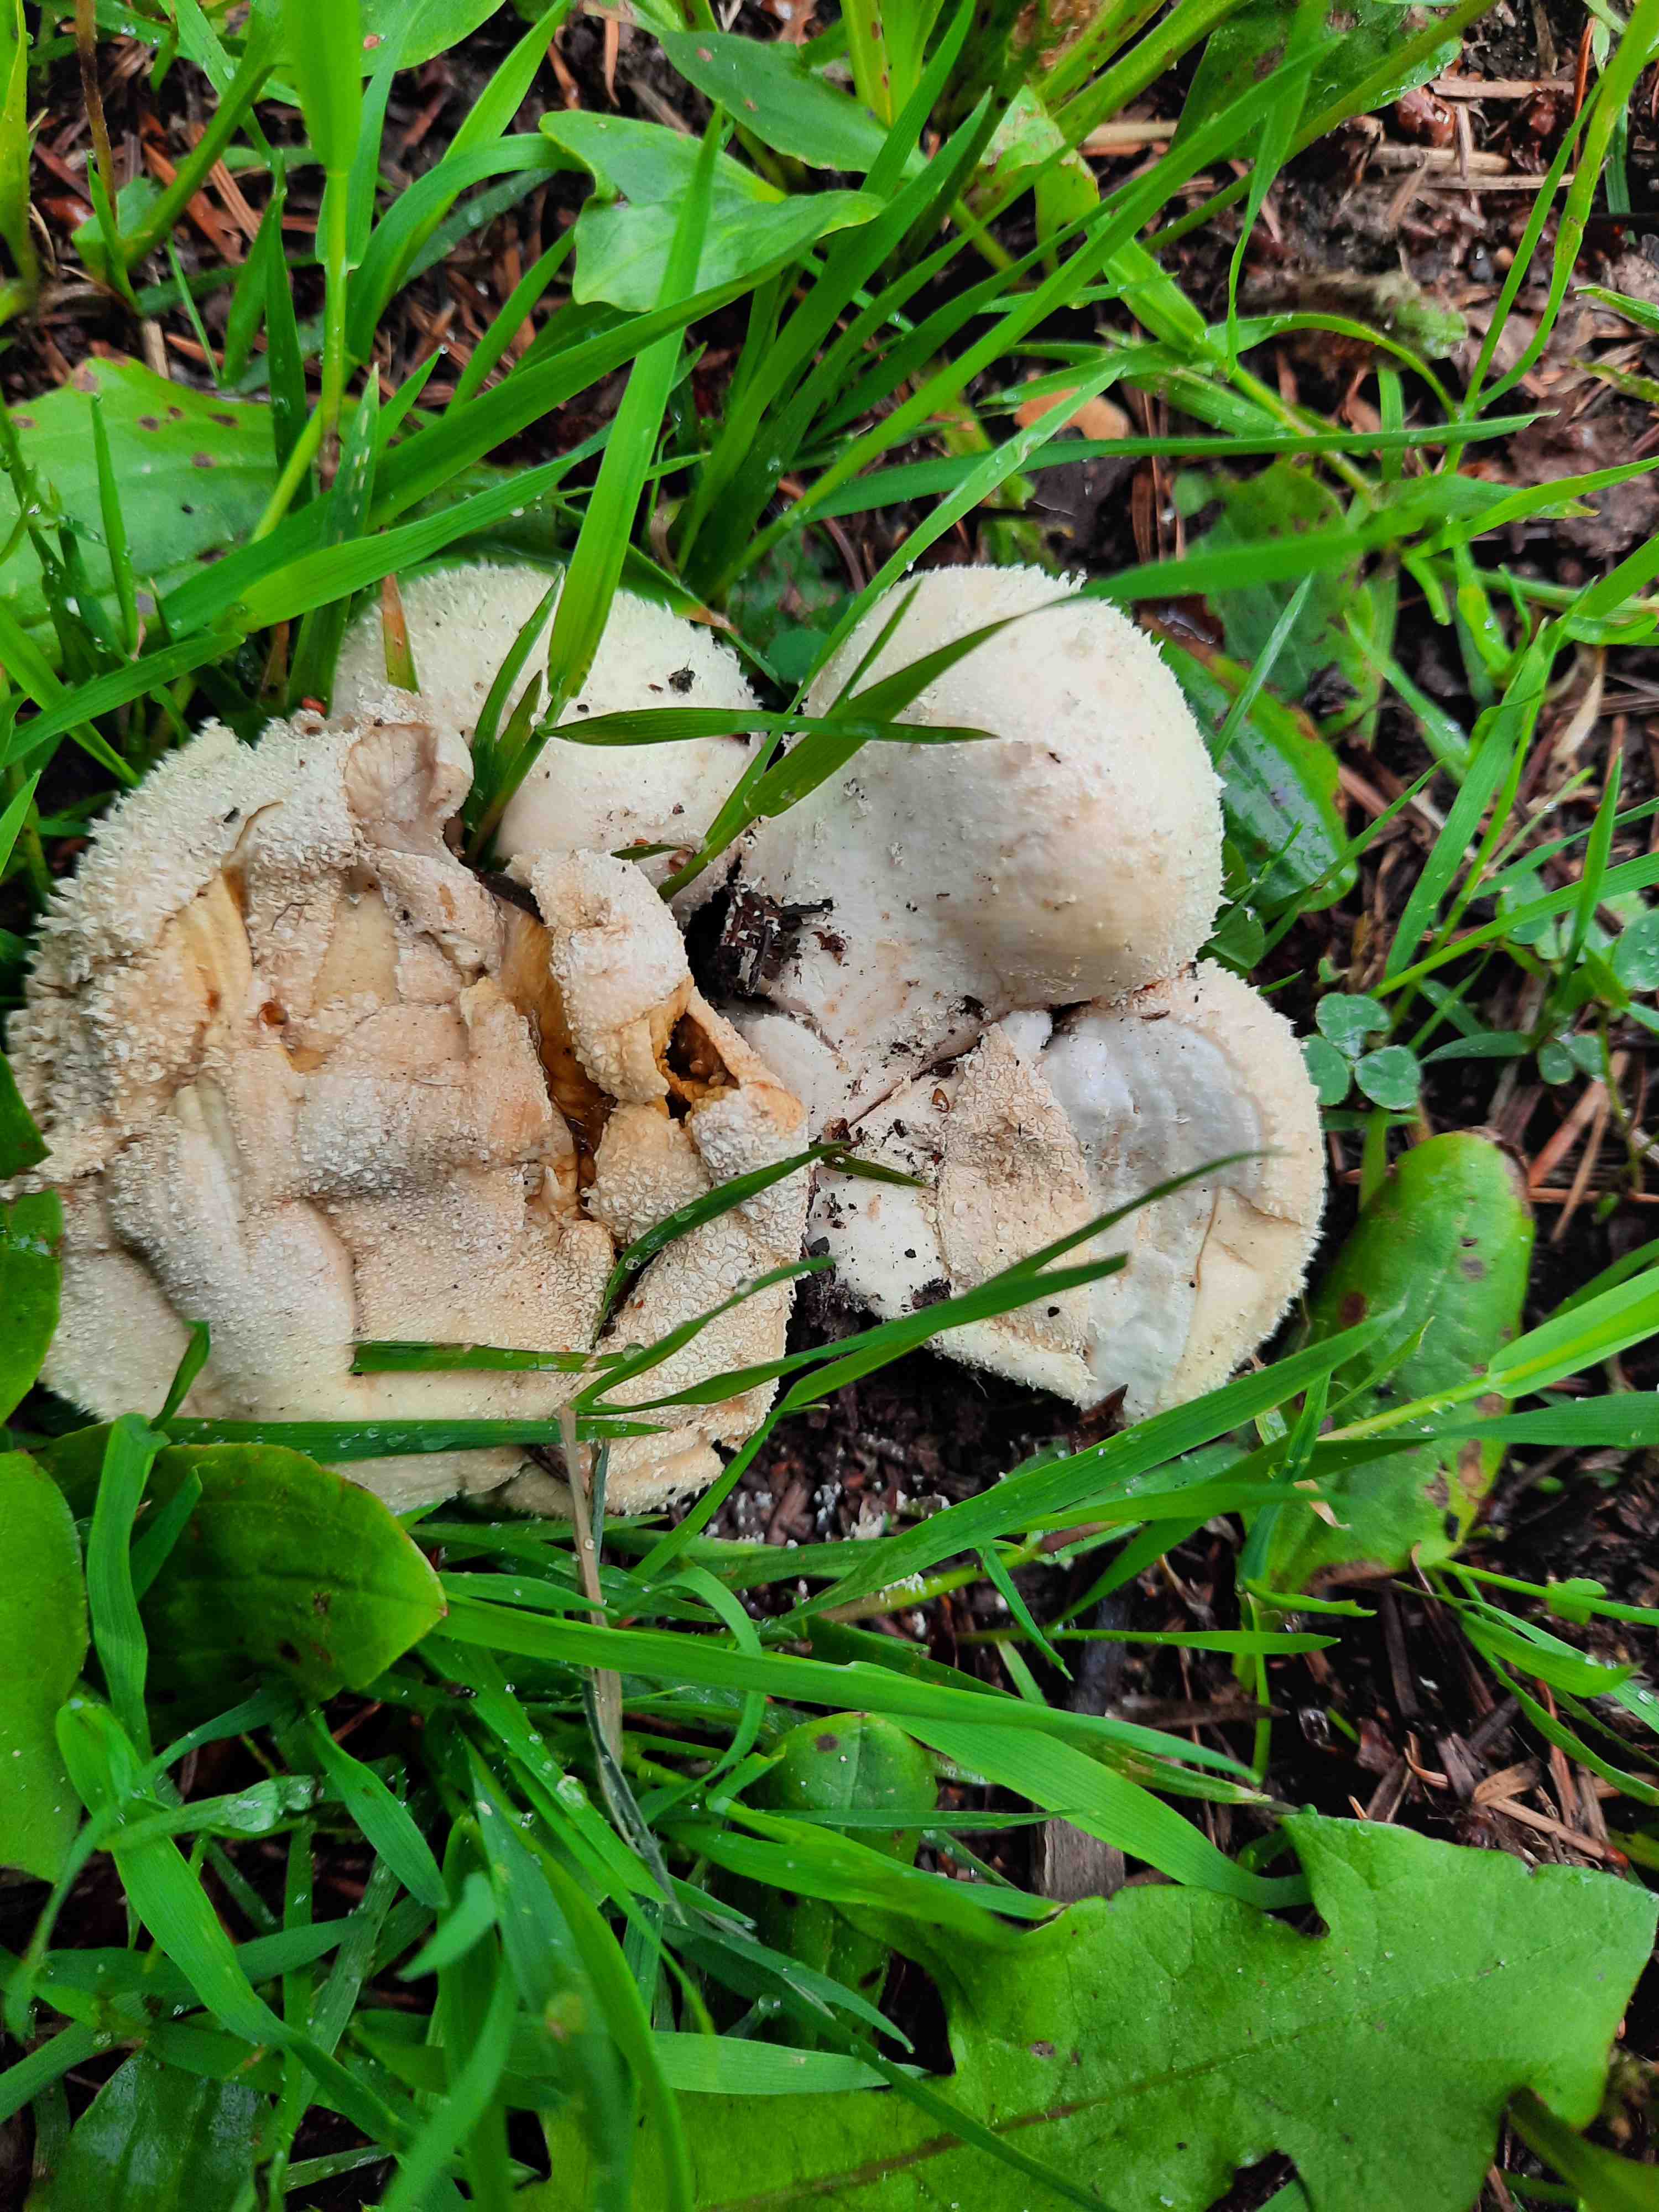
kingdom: Fungi
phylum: Basidiomycota
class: Agaricomycetes
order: Agaricales
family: Agaricaceae
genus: Lycoperdon
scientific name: Lycoperdon
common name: støvbold
